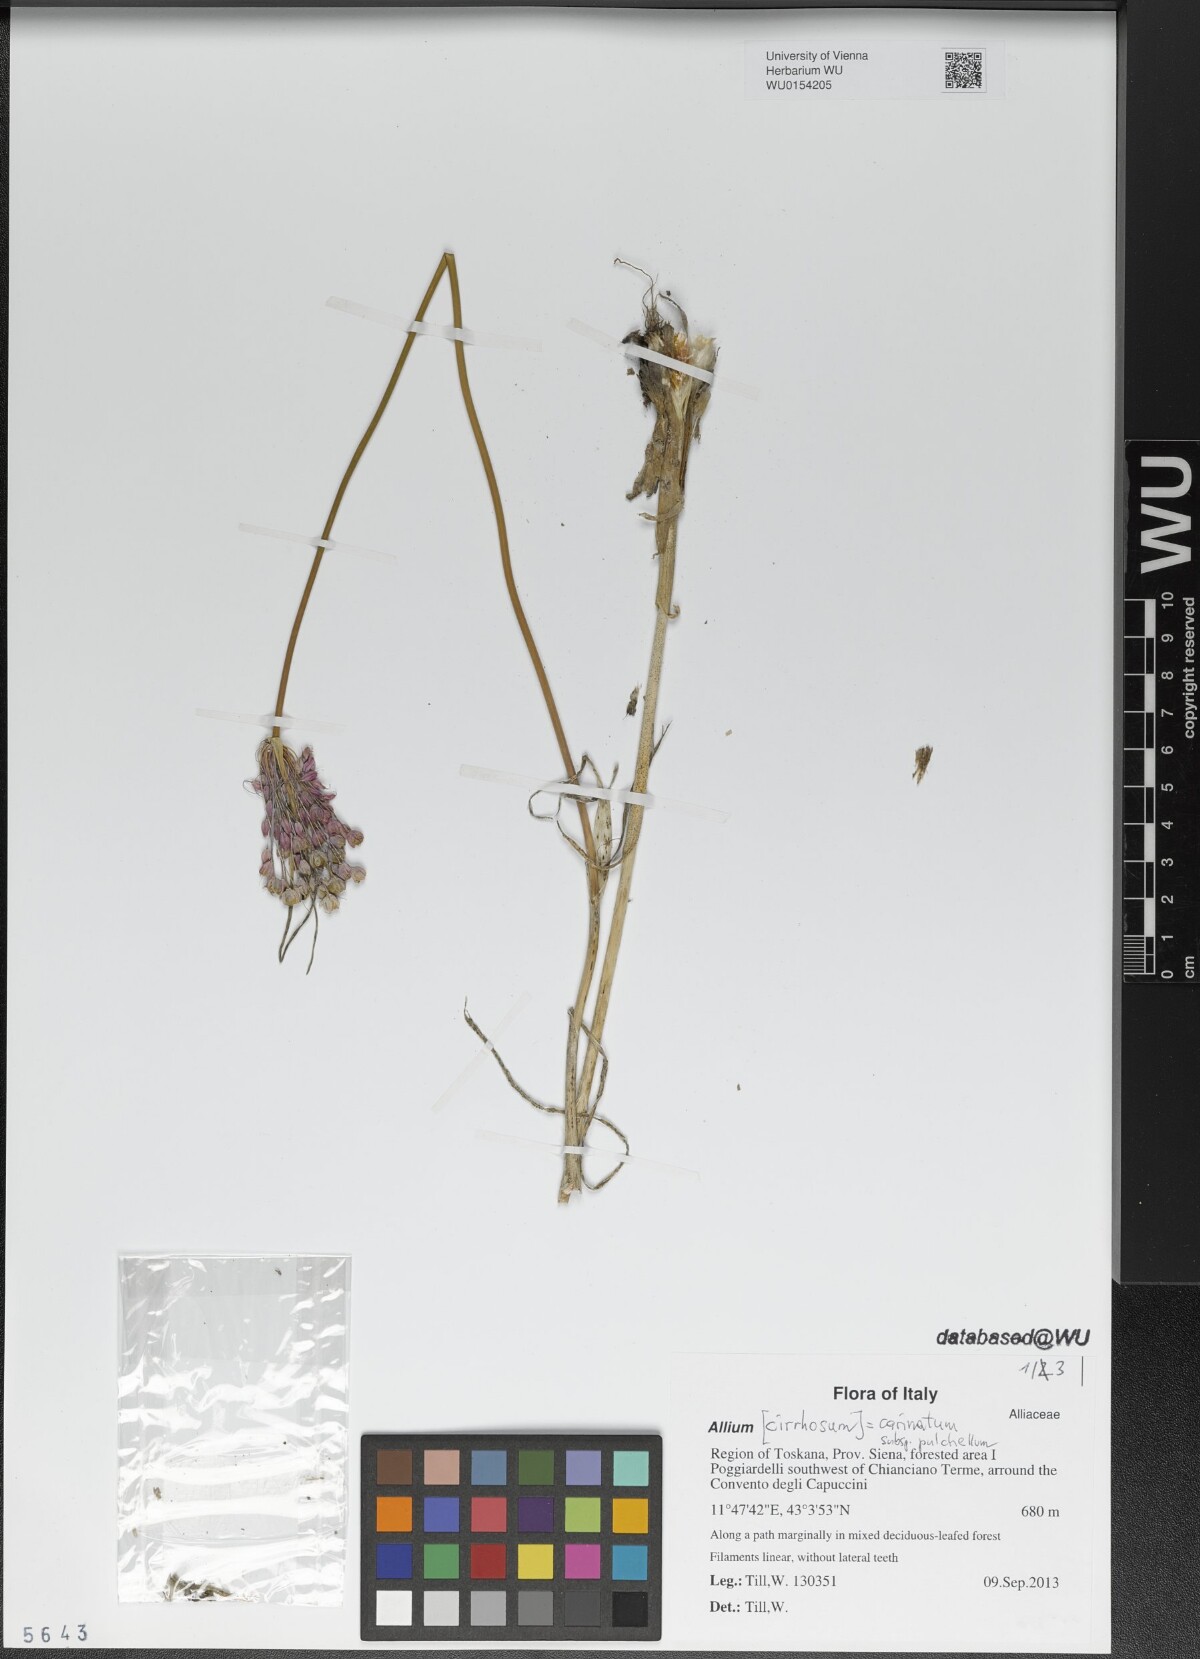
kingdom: Plantae
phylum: Tracheophyta
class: Liliopsida
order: Asparagales
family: Amaryllidaceae
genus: Allium
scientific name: Allium coloratum
